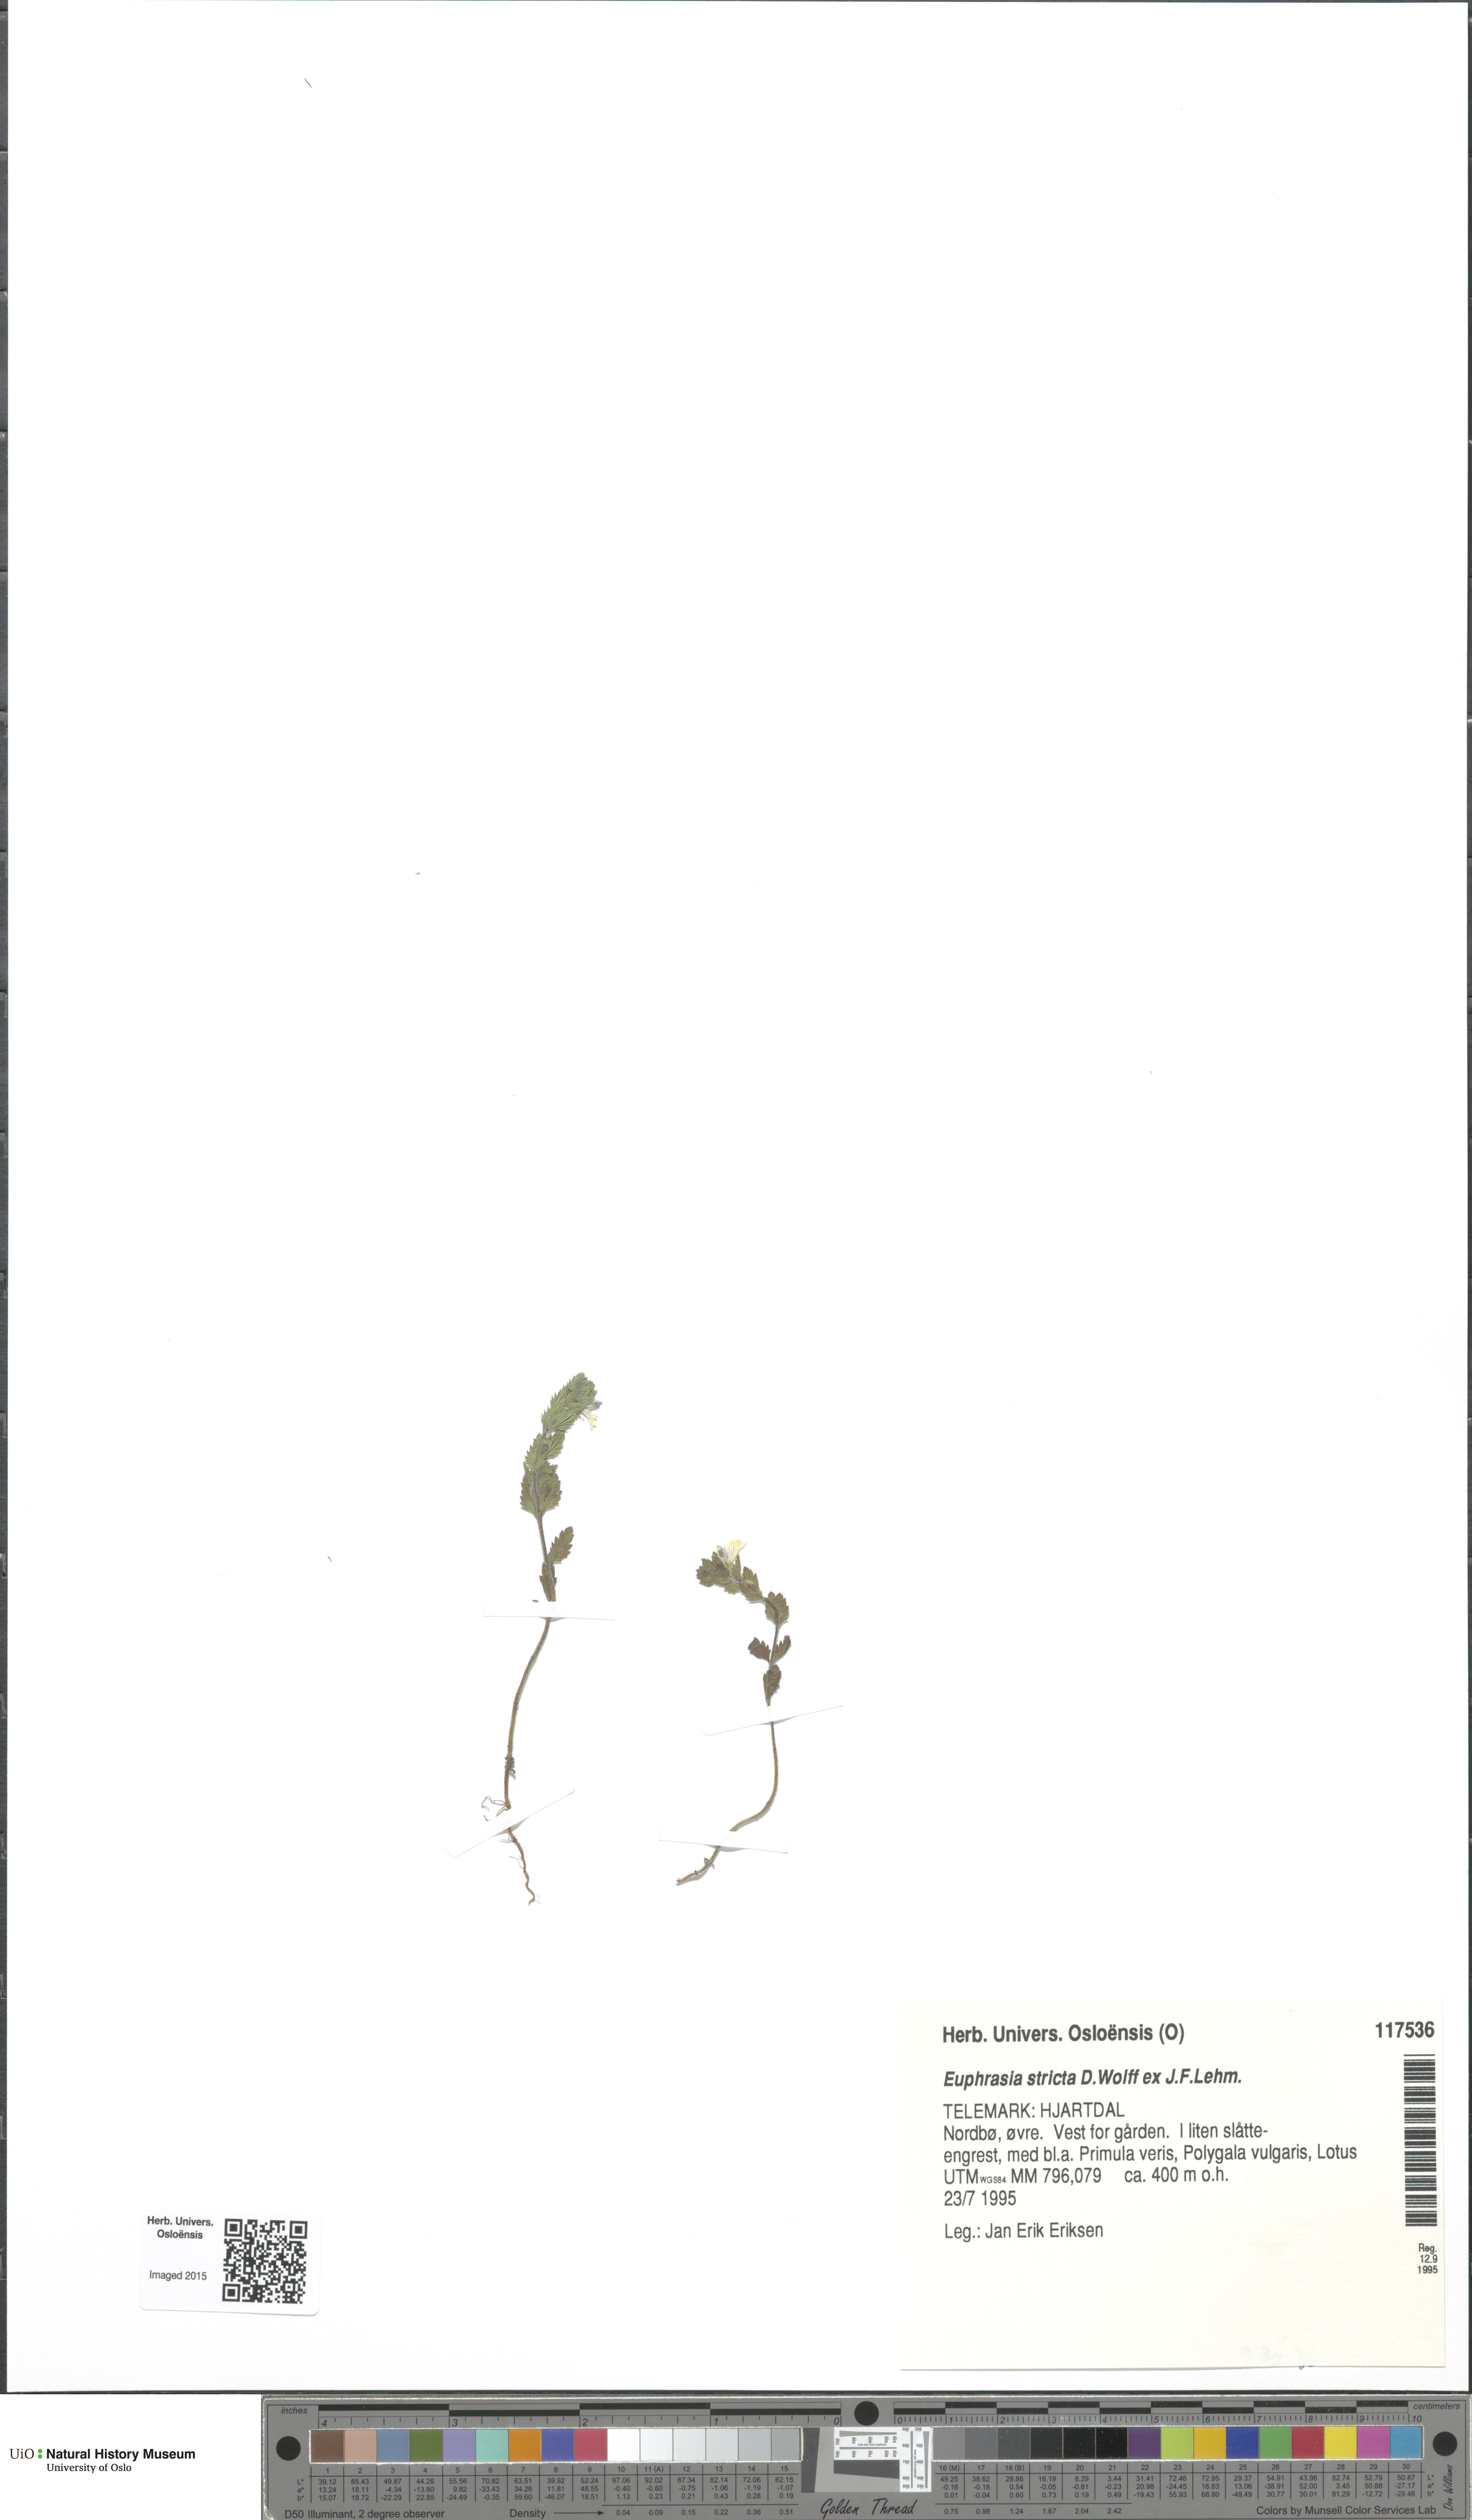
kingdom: Plantae
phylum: Tracheophyta
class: Magnoliopsida
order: Lamiales
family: Orobanchaceae
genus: Euphrasia
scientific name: Euphrasia stricta
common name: Drug eyebright
